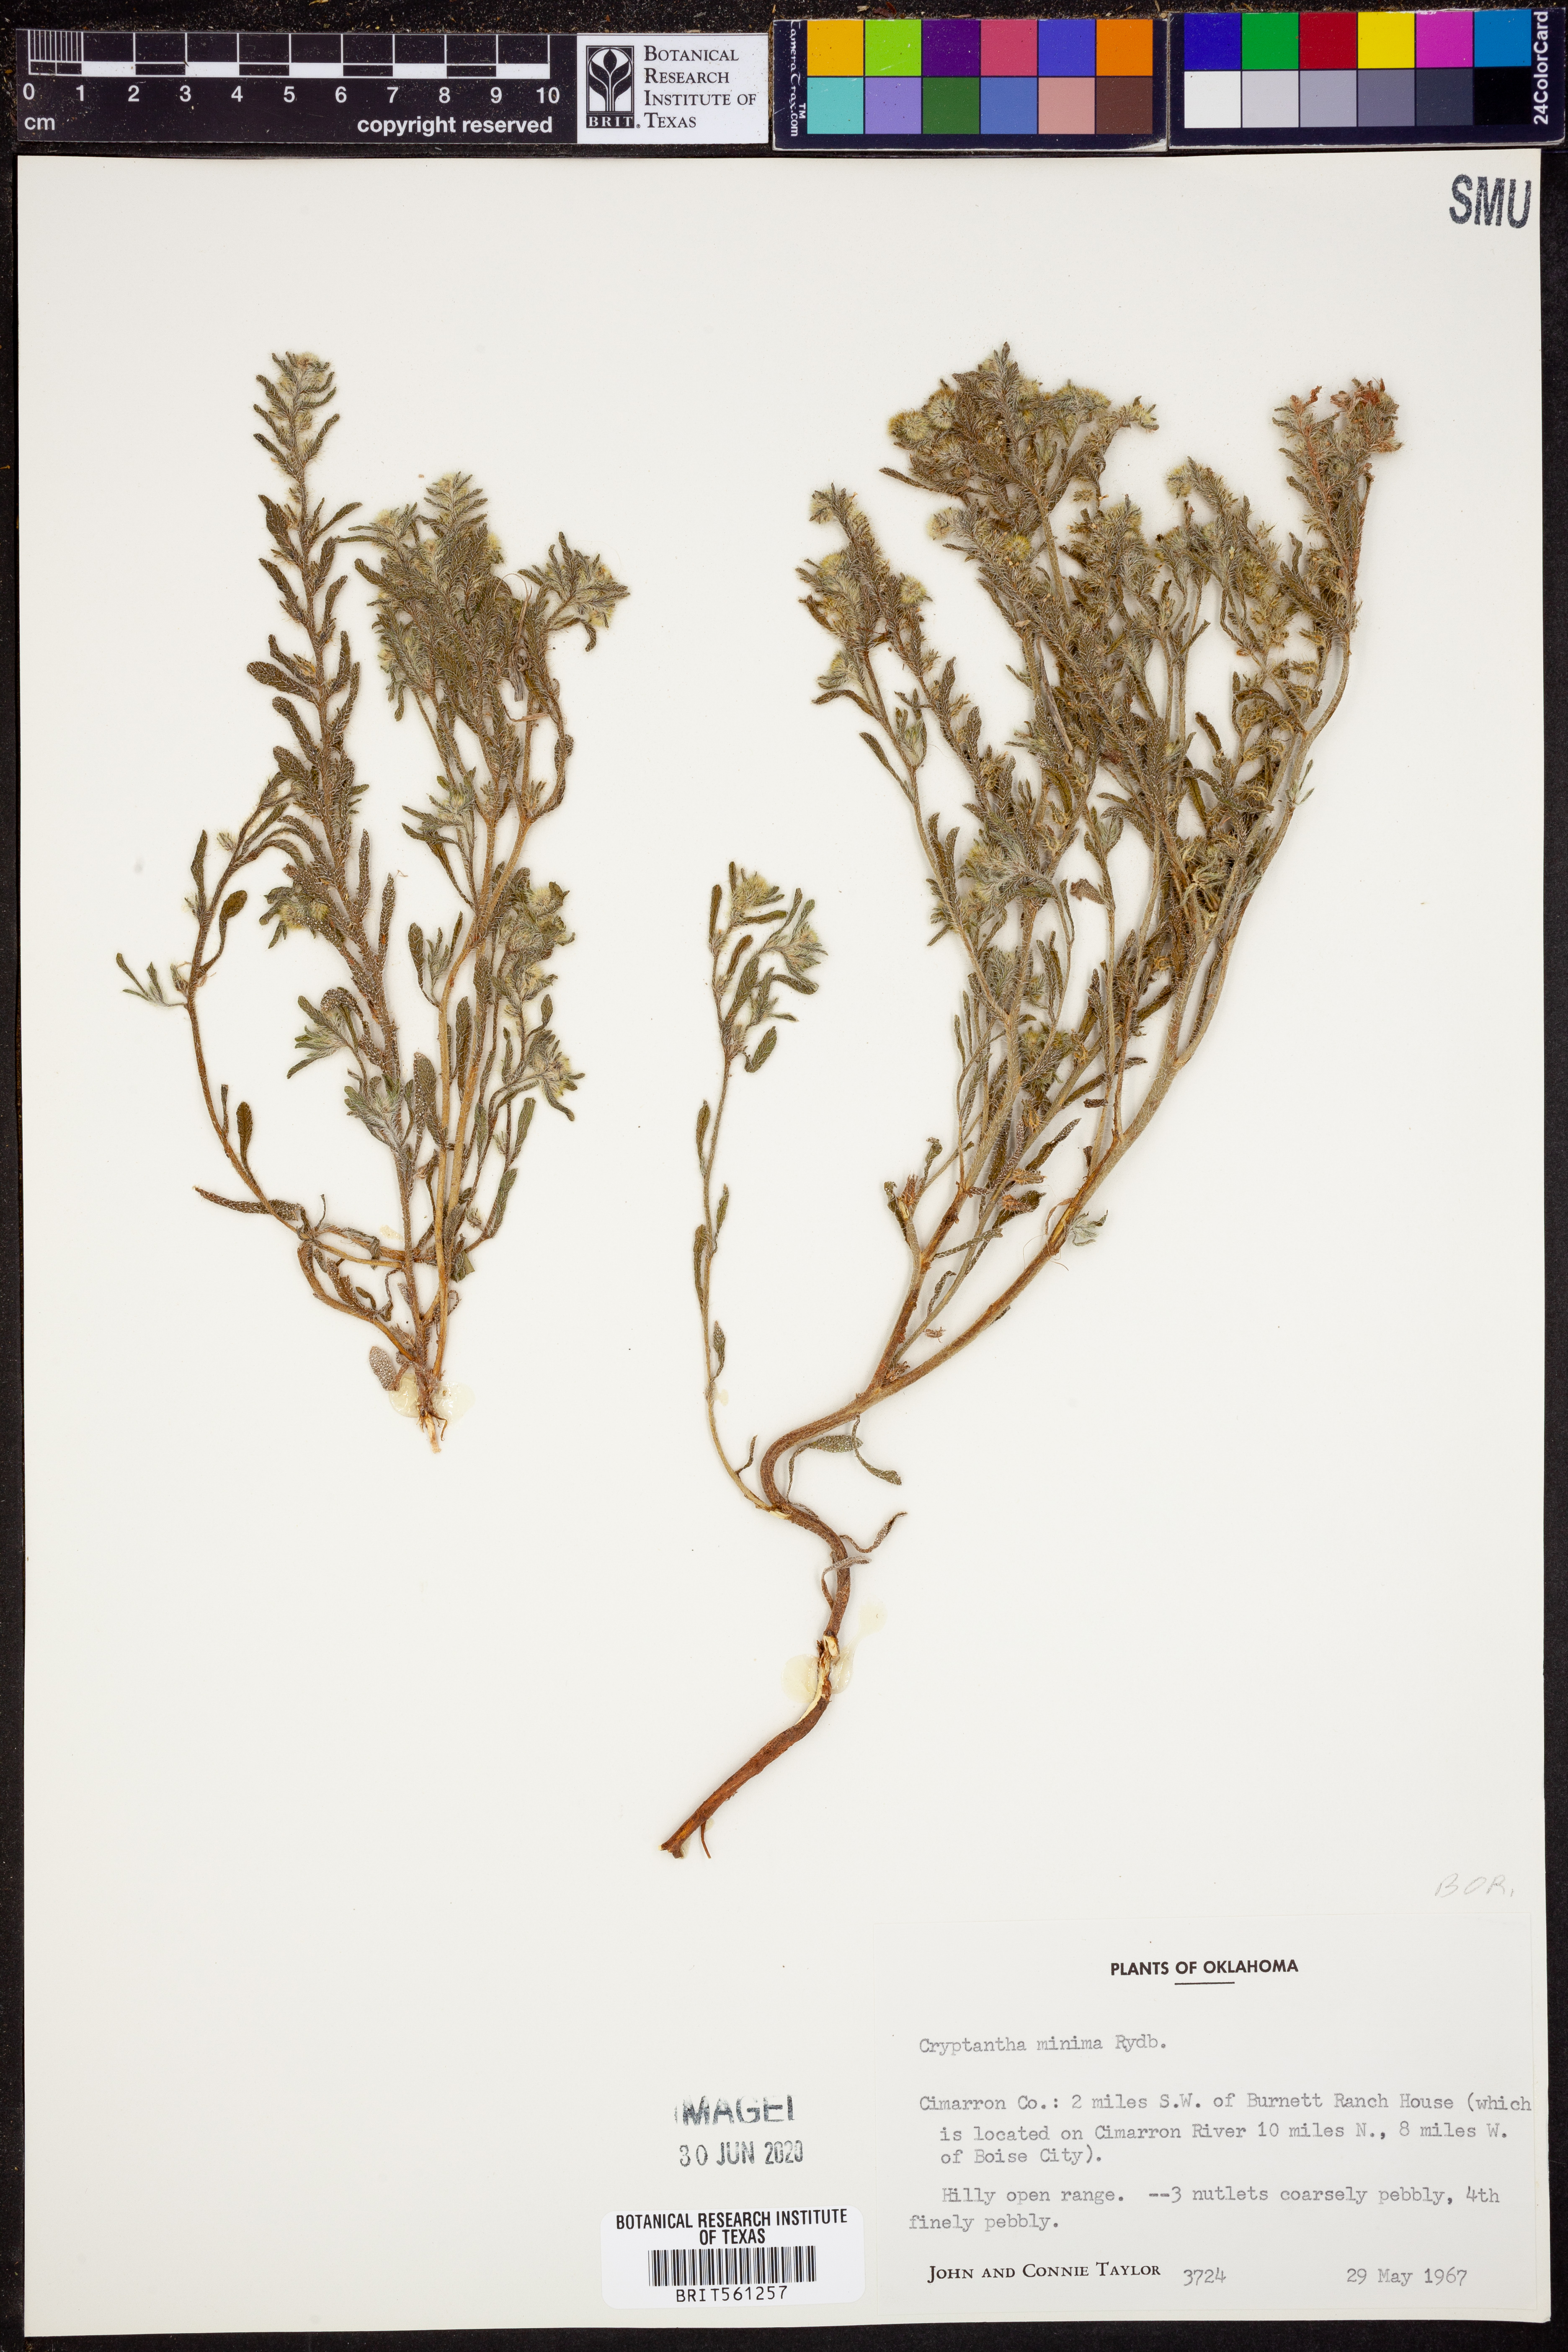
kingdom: Plantae
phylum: Tracheophyta
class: Magnoliopsida
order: Boraginales
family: Boraginaceae
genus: Cryptantha
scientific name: Cryptantha minima
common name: Little cat's-eye
